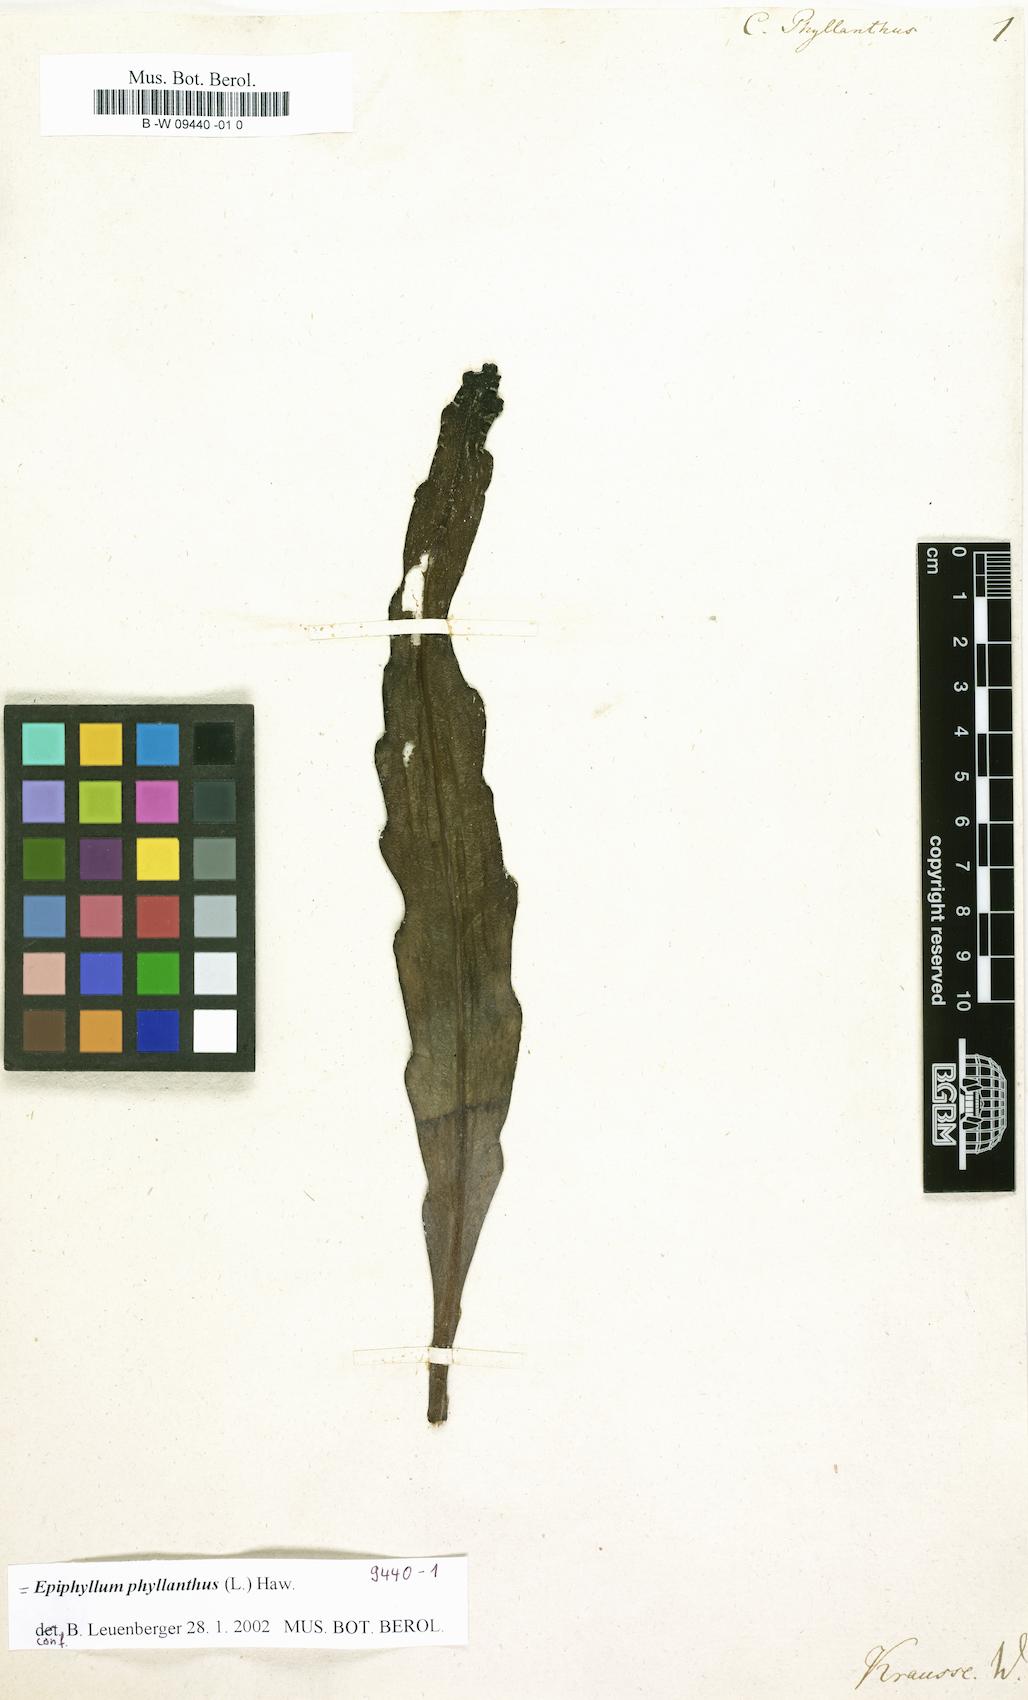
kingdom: Plantae
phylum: Tracheophyta
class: Magnoliopsida
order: Caryophyllales
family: Cactaceae
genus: Epiphyllum
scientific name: Epiphyllum phyllanthus
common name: Climbing cactus
